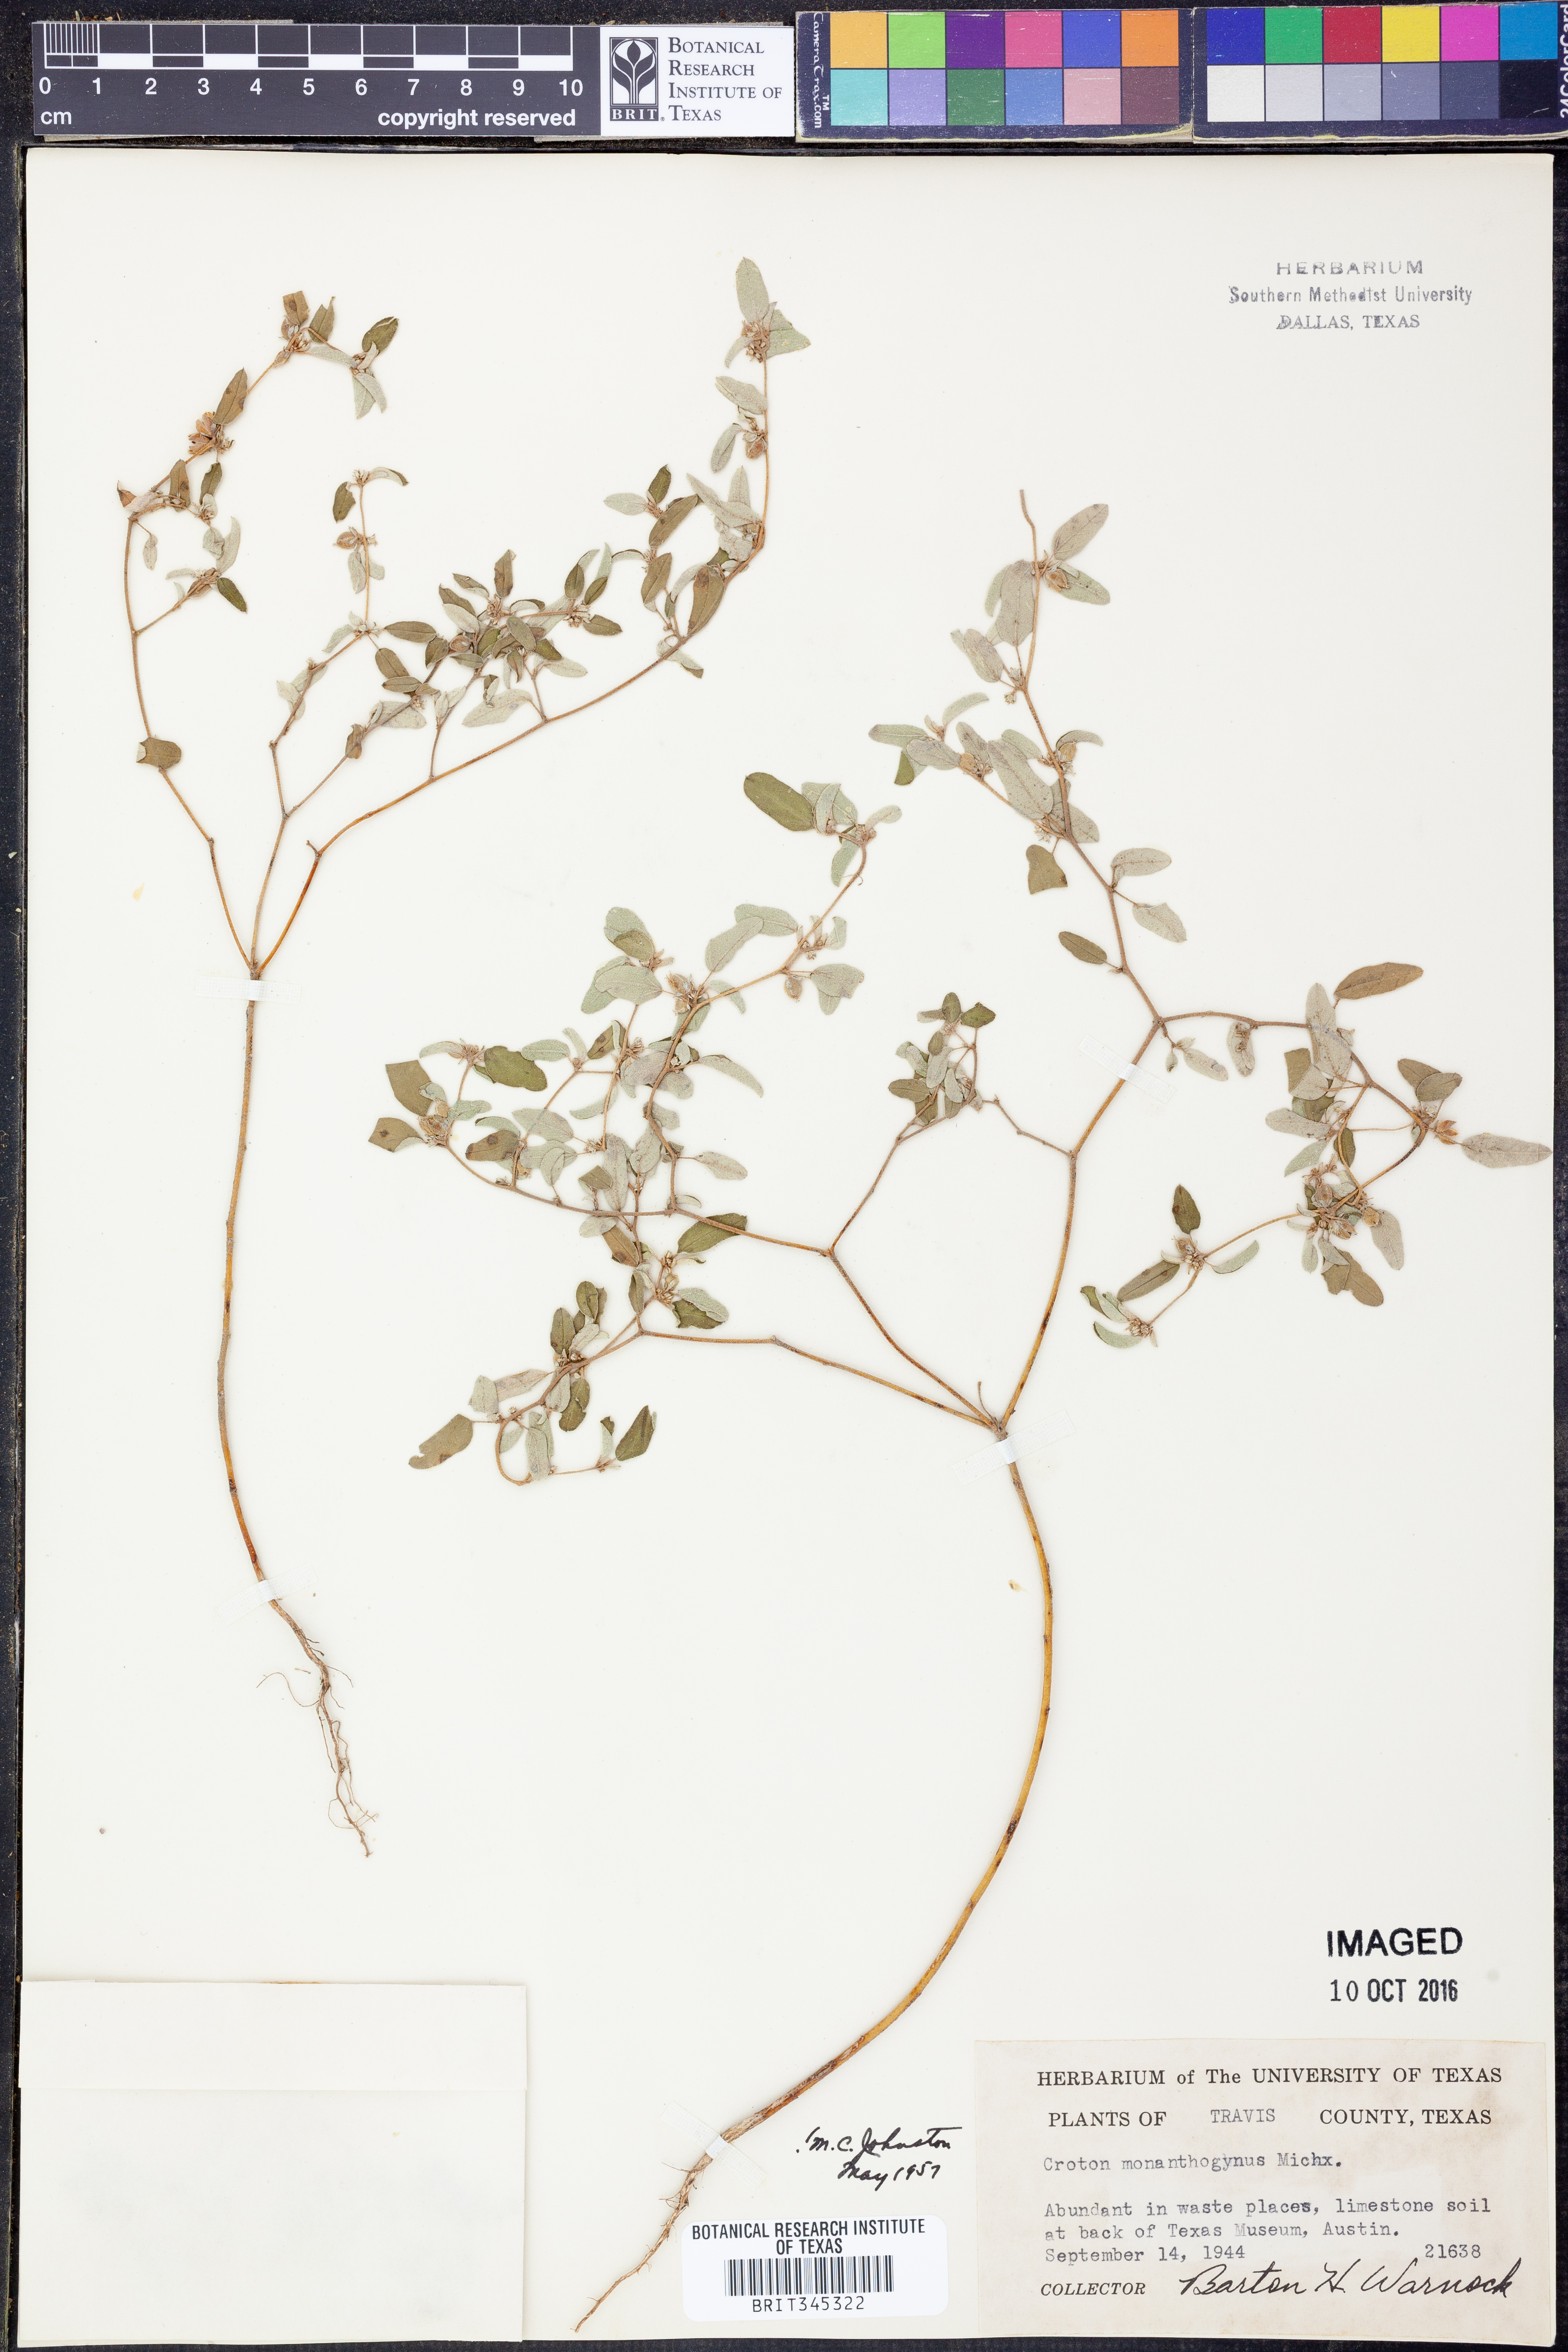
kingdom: Plantae
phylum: Tracheophyta
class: Magnoliopsida
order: Malpighiales
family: Euphorbiaceae
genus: Croton
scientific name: Croton monanthogynus
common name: One-seed croton
